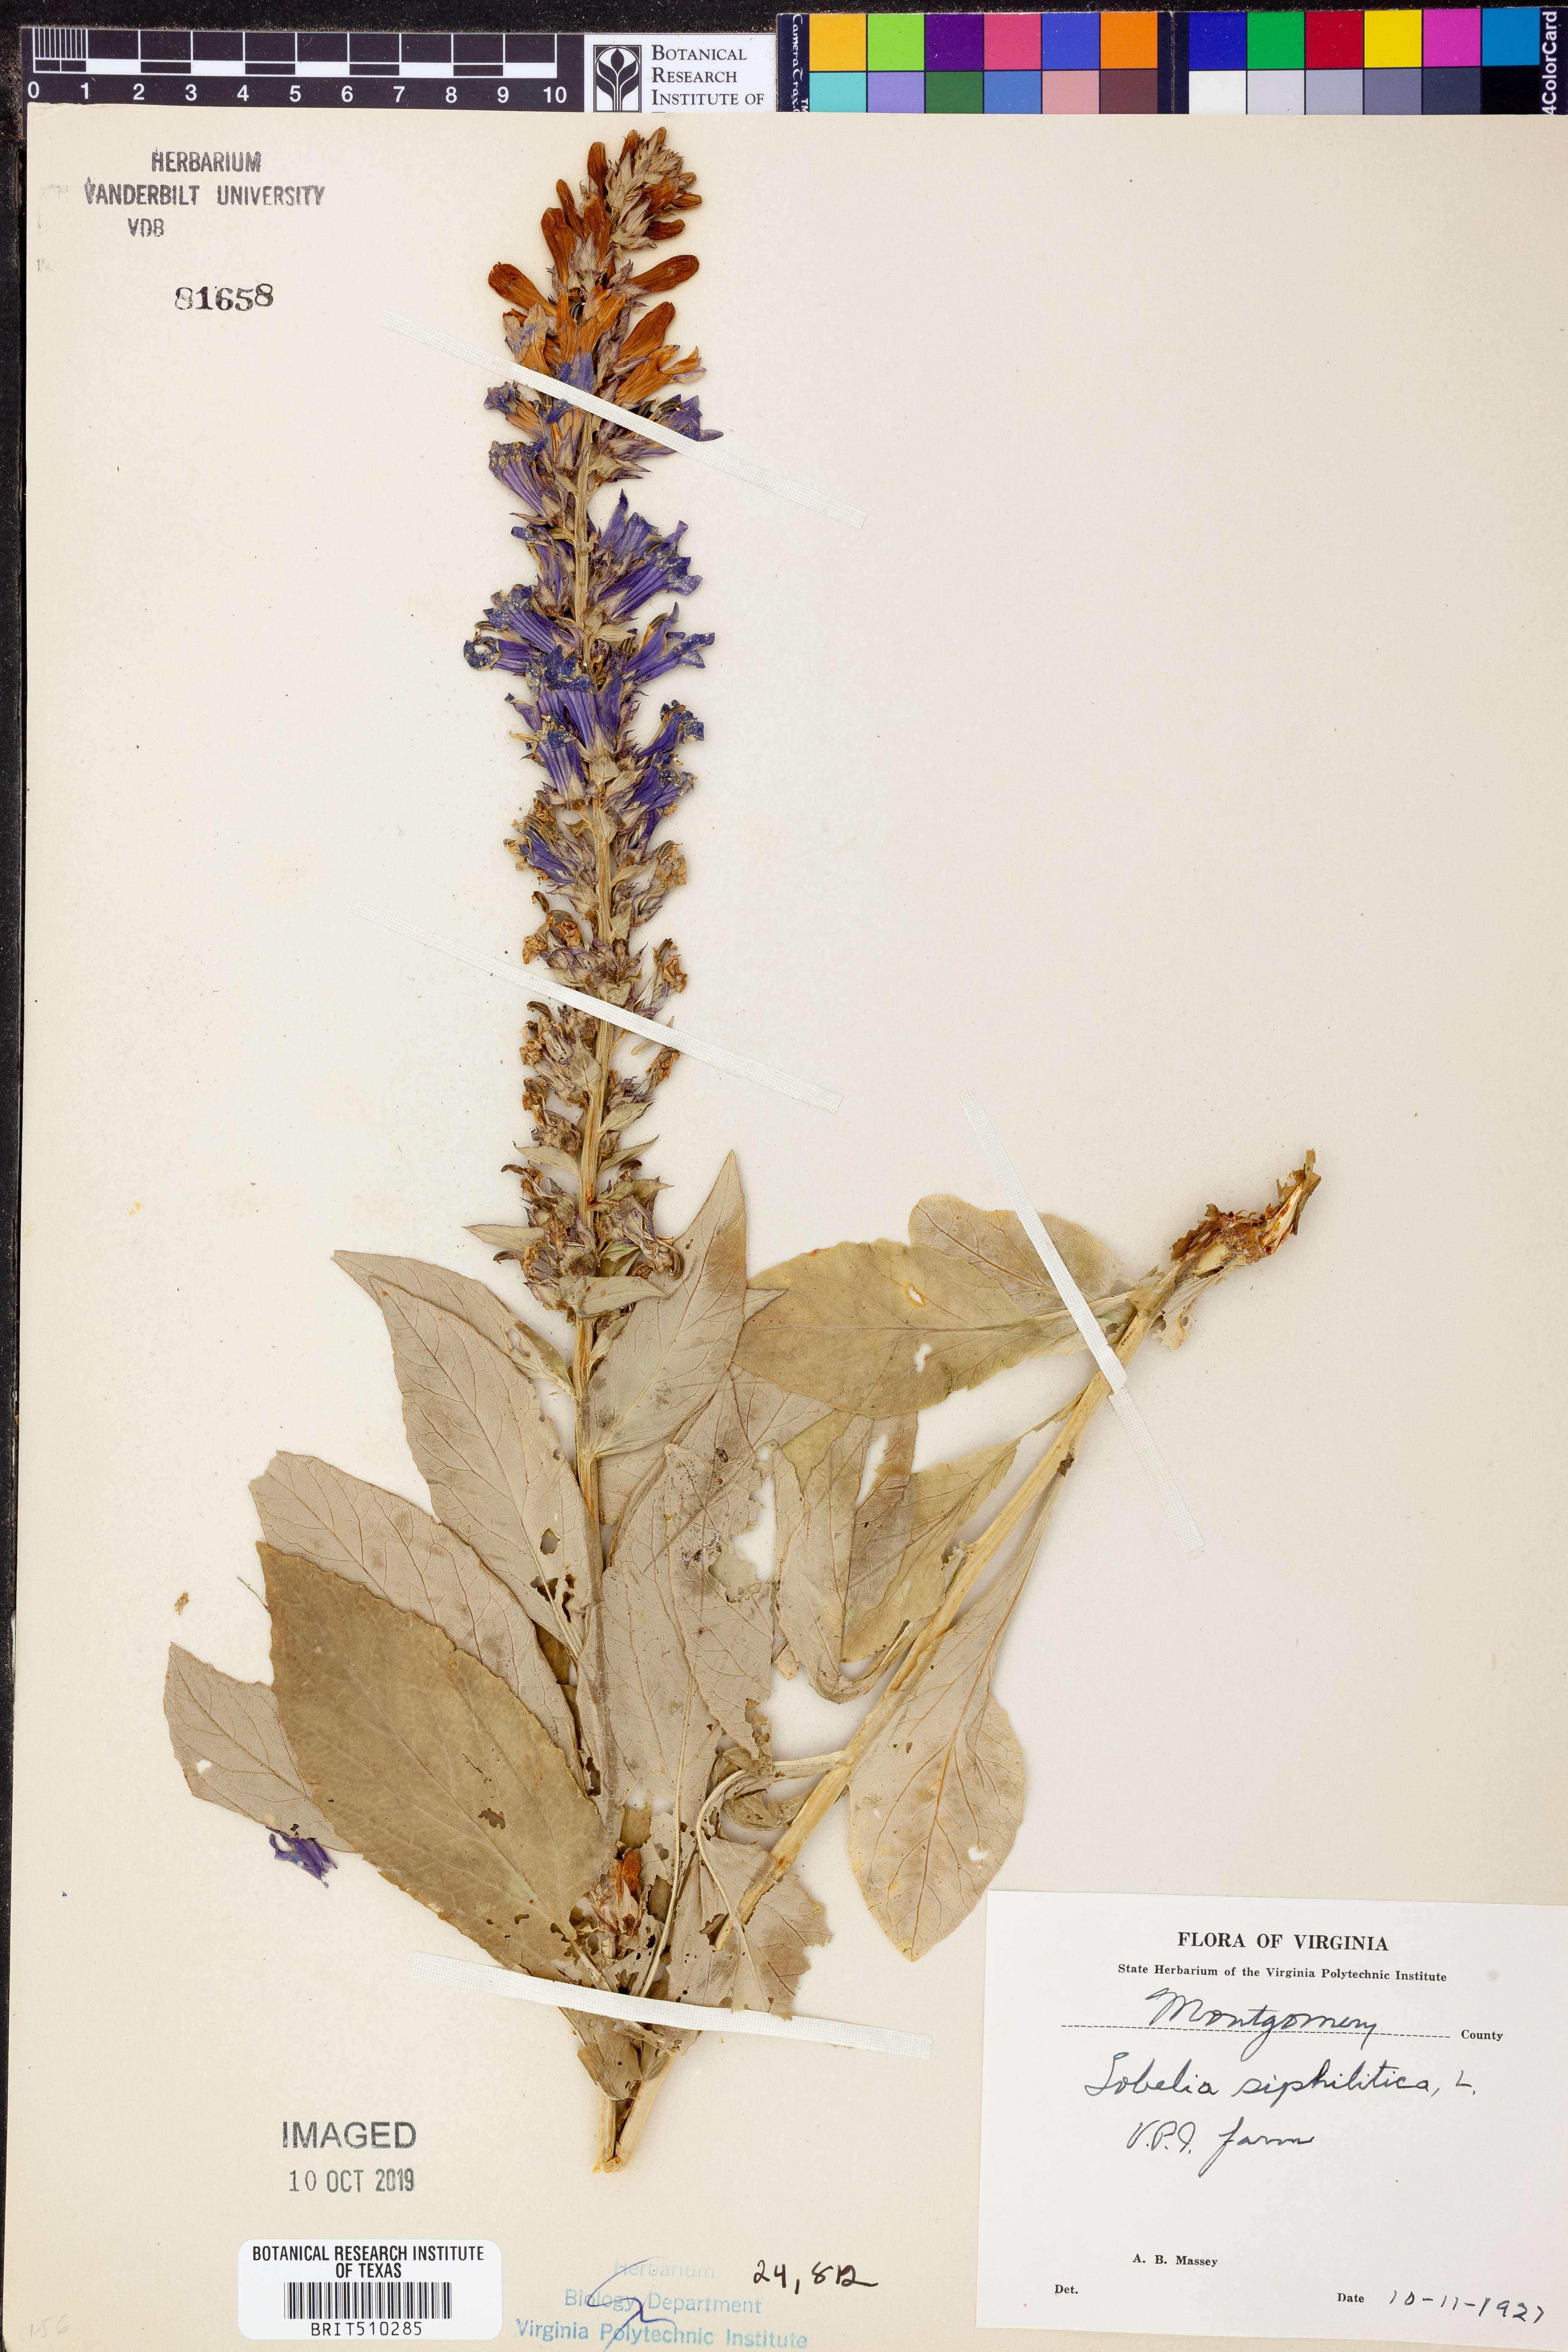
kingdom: Plantae
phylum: Tracheophyta
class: Magnoliopsida
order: Asterales
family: Campanulaceae
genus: Lobelia
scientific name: Lobelia siphilitica
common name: Great lobelia
